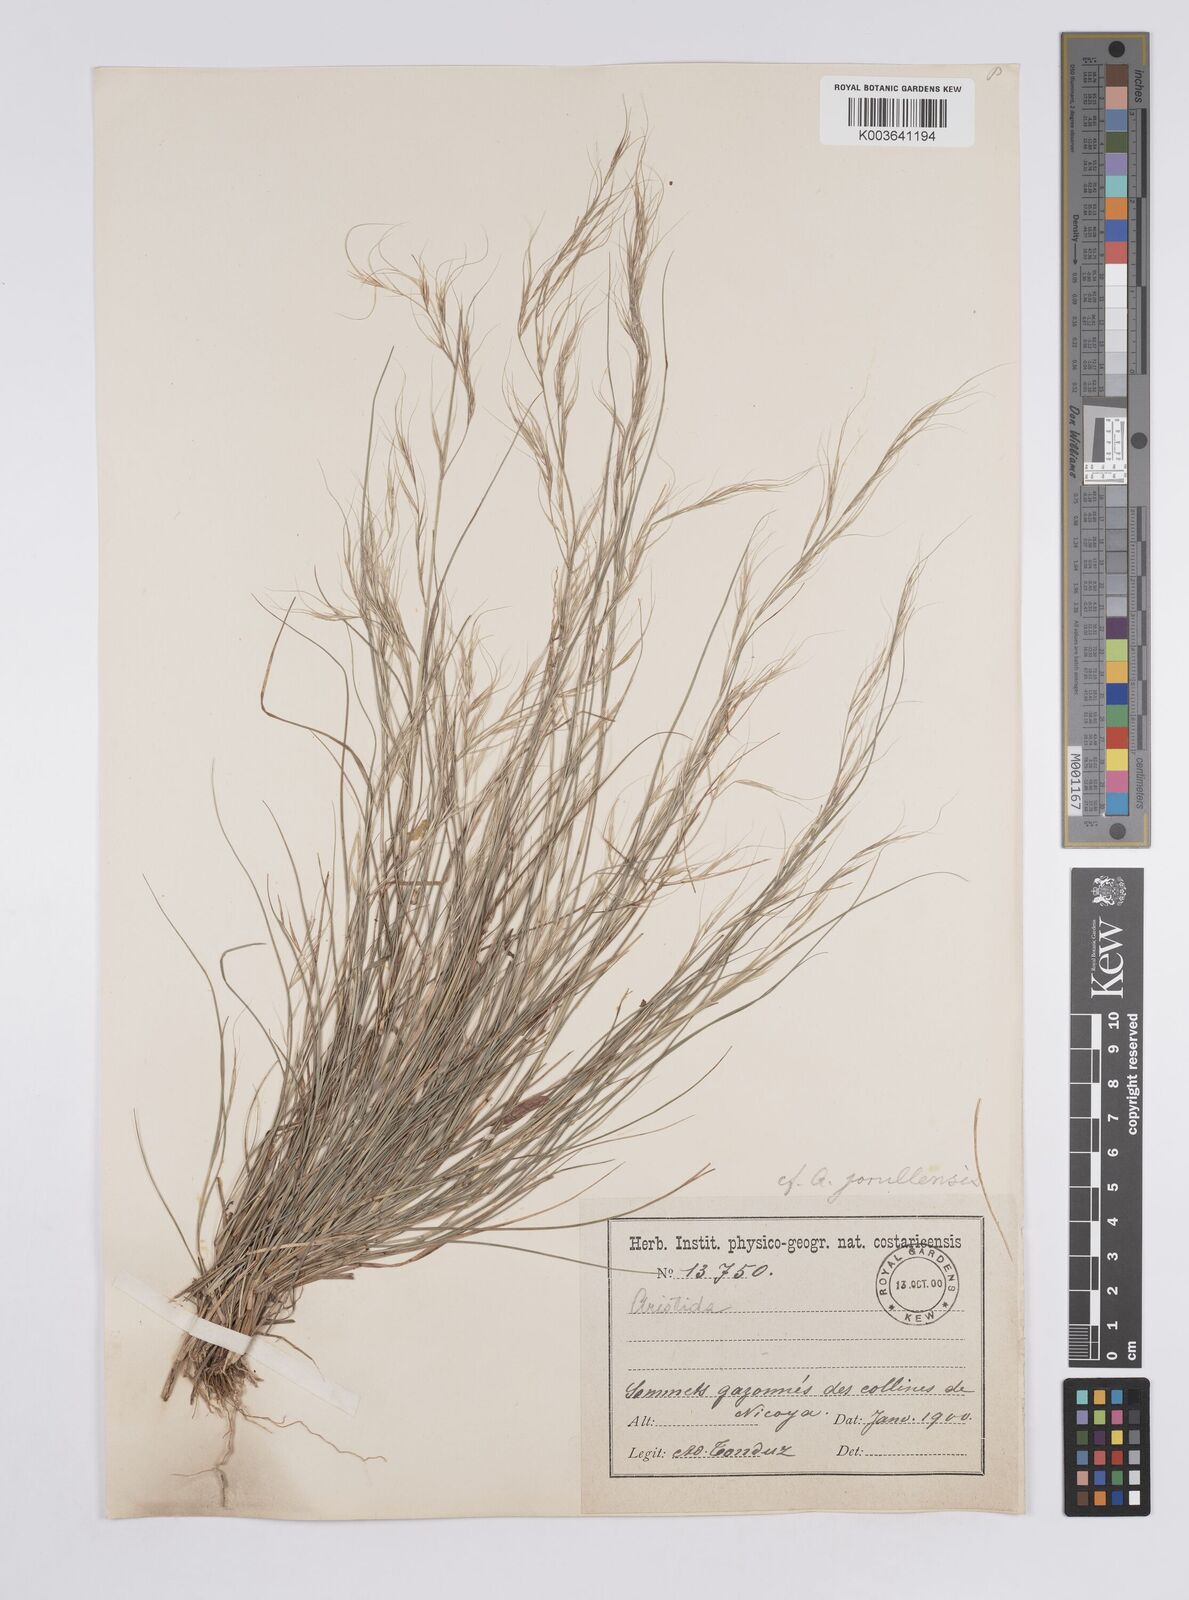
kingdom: Plantae
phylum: Tracheophyta
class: Liliopsida
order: Poales
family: Poaceae
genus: Aristida
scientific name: Aristida jorullensis
